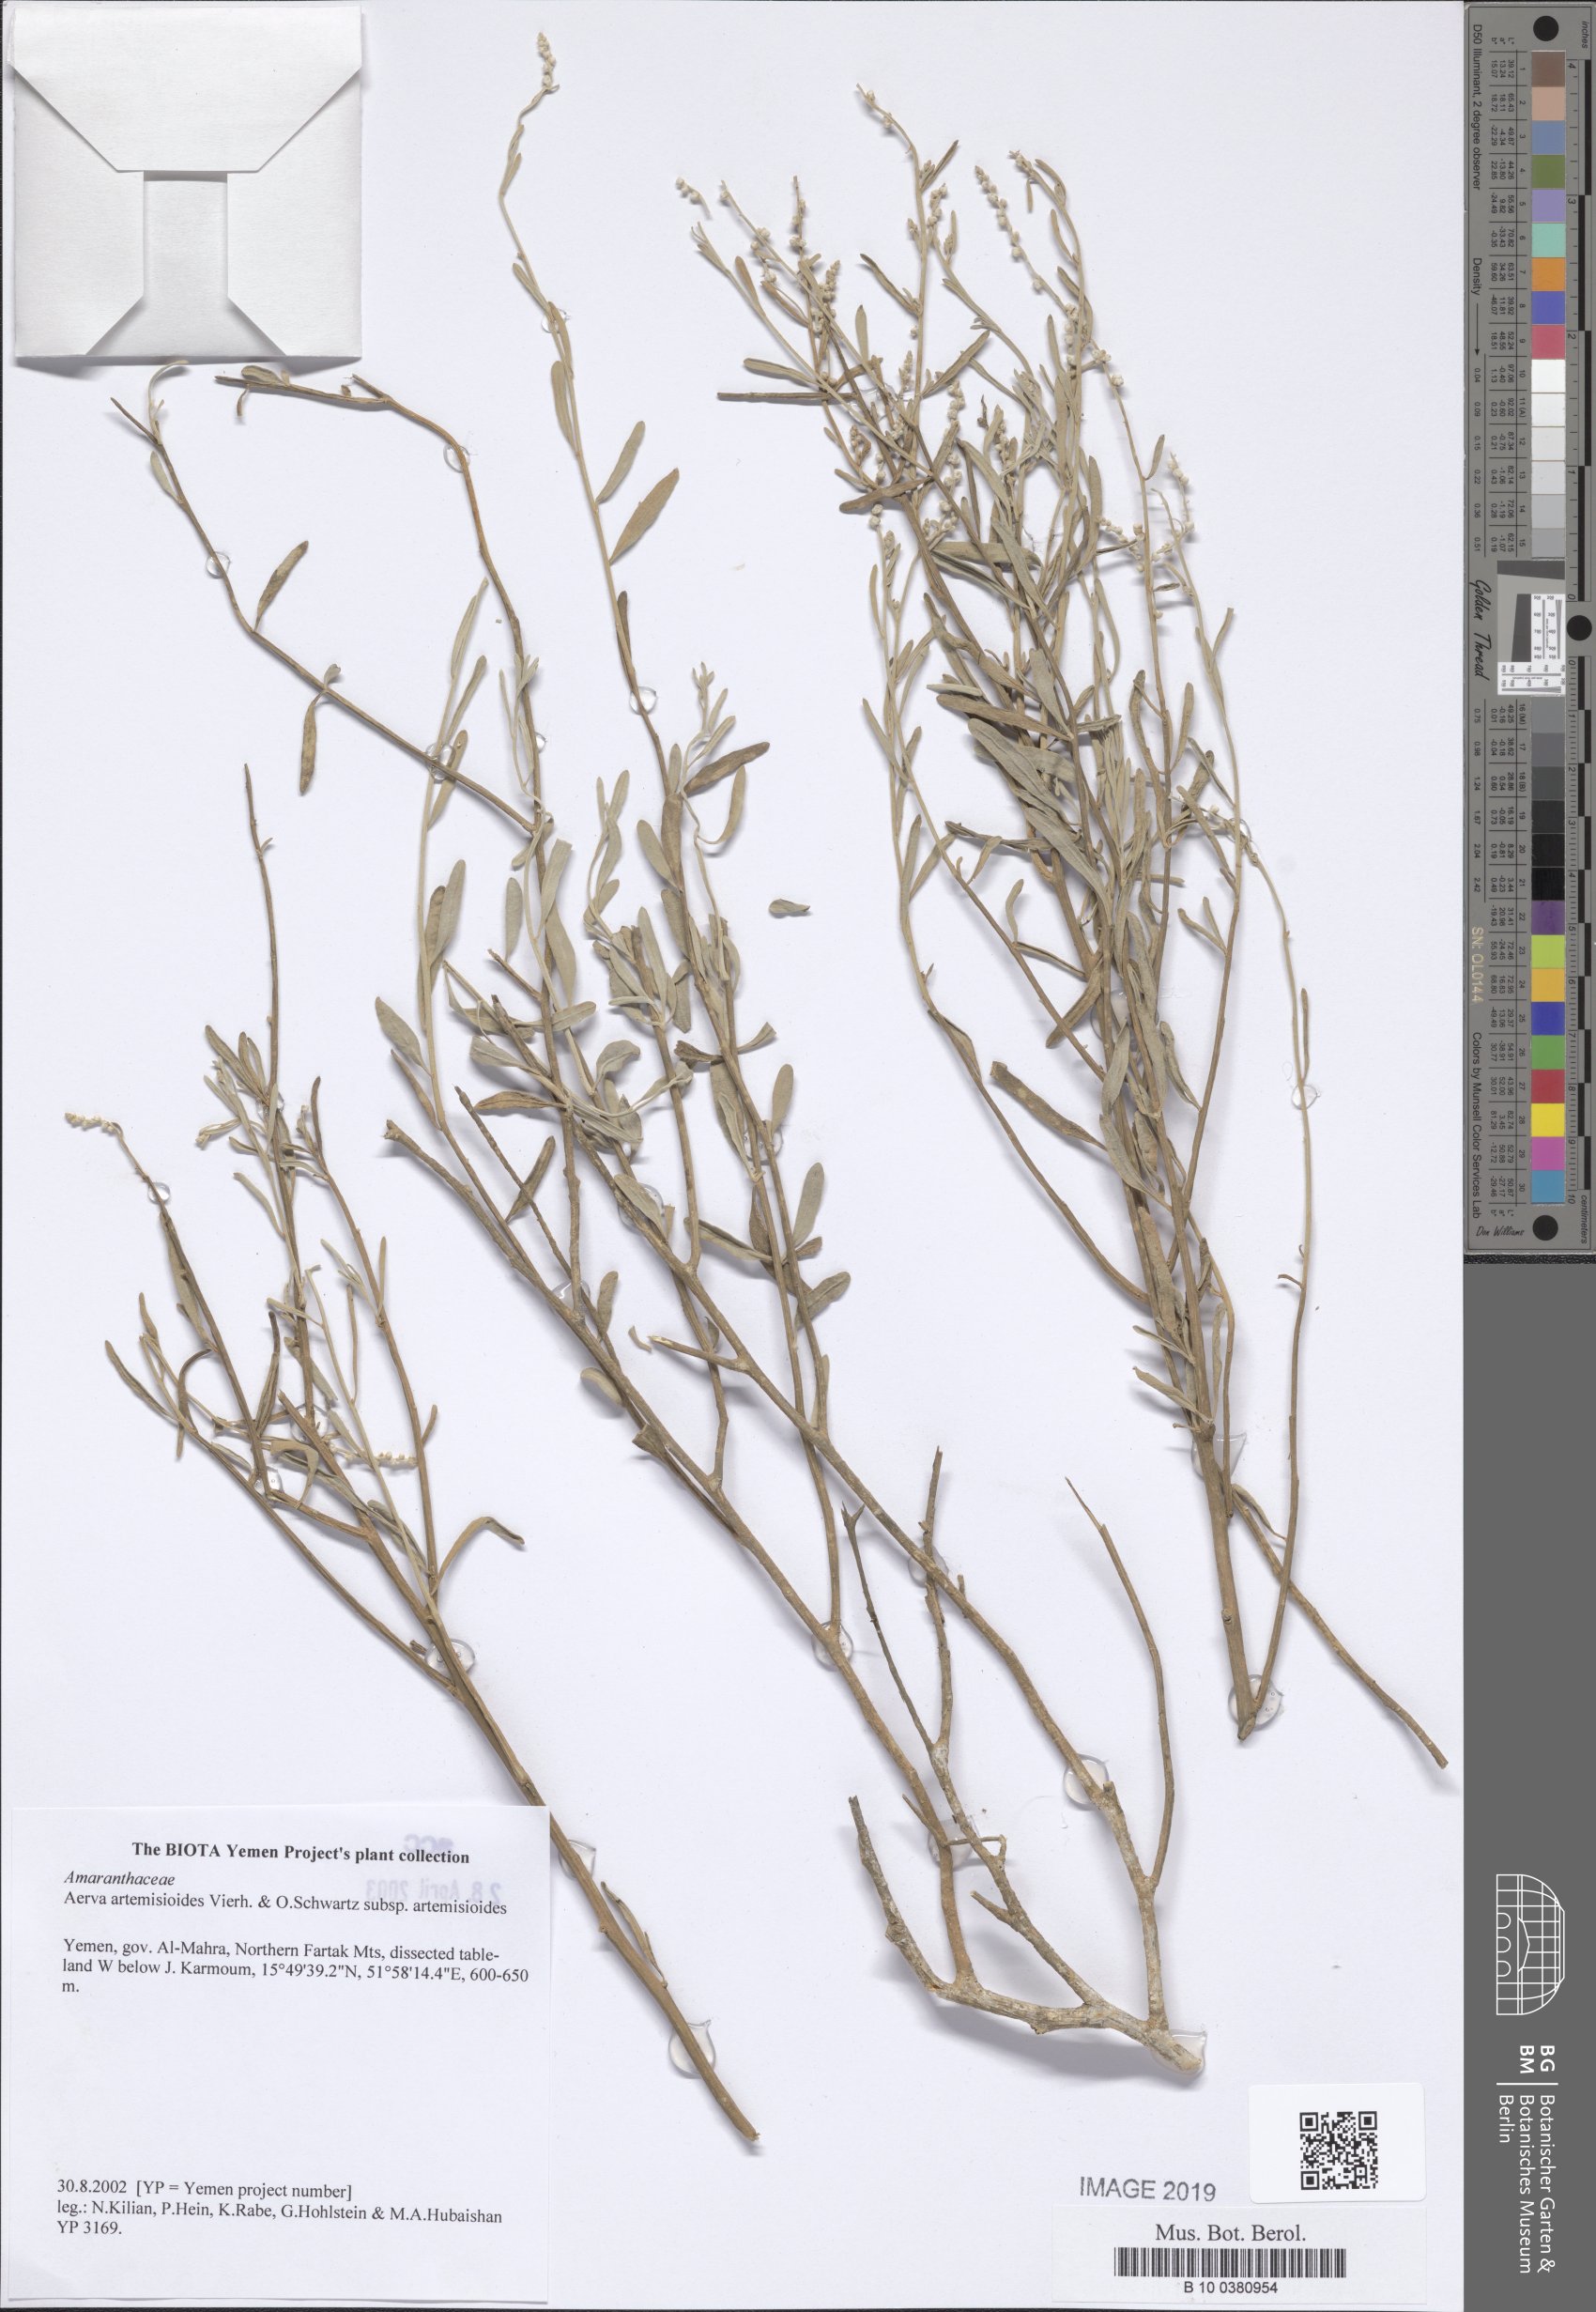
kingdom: Plantae
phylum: Tracheophyta
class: Magnoliopsida
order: Caryophyllales
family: Amaranthaceae
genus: Wadithamnus
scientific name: Wadithamnus artemisioides
